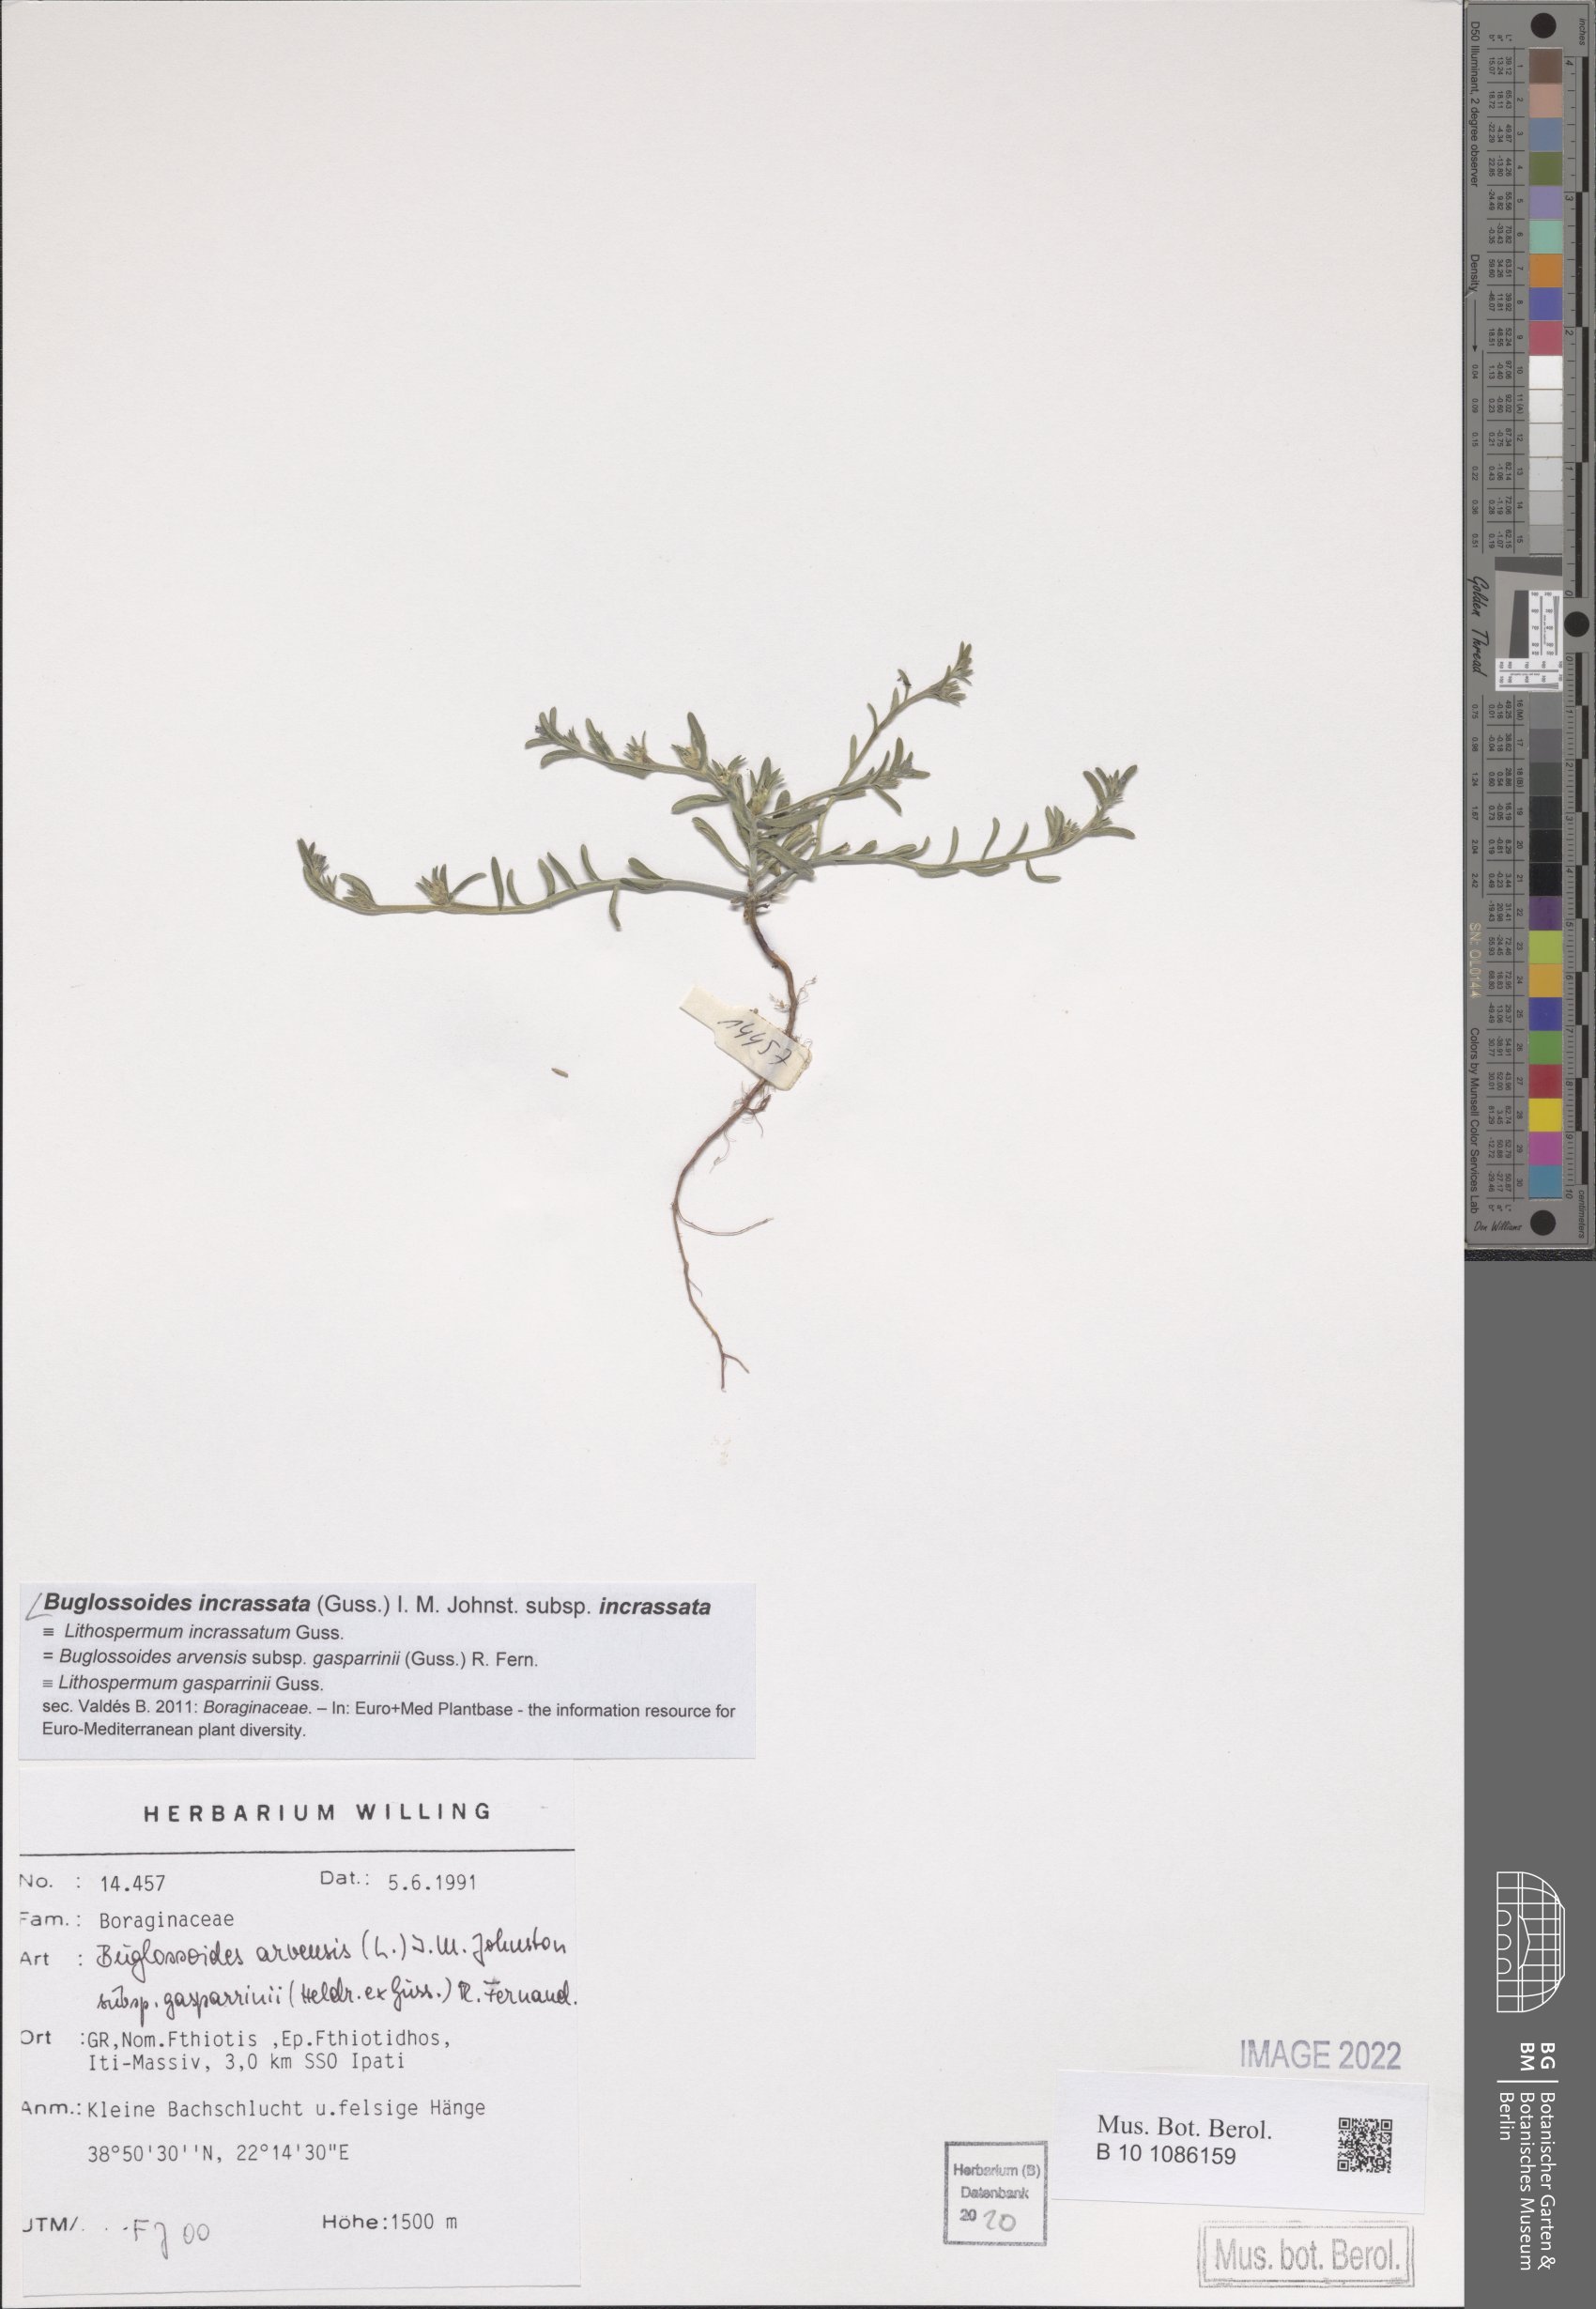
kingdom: Plantae
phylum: Tracheophyta
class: Magnoliopsida
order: Boraginales
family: Boraginaceae
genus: Buglossoides
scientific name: Buglossoides incrassata
